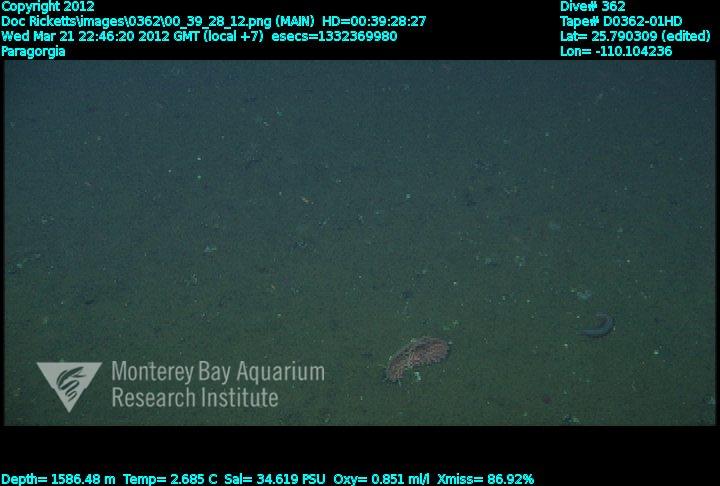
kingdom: Animalia
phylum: Cnidaria
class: Anthozoa
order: Scleralcyonacea
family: Coralliidae
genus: Paragorgia
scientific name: Paragorgia
